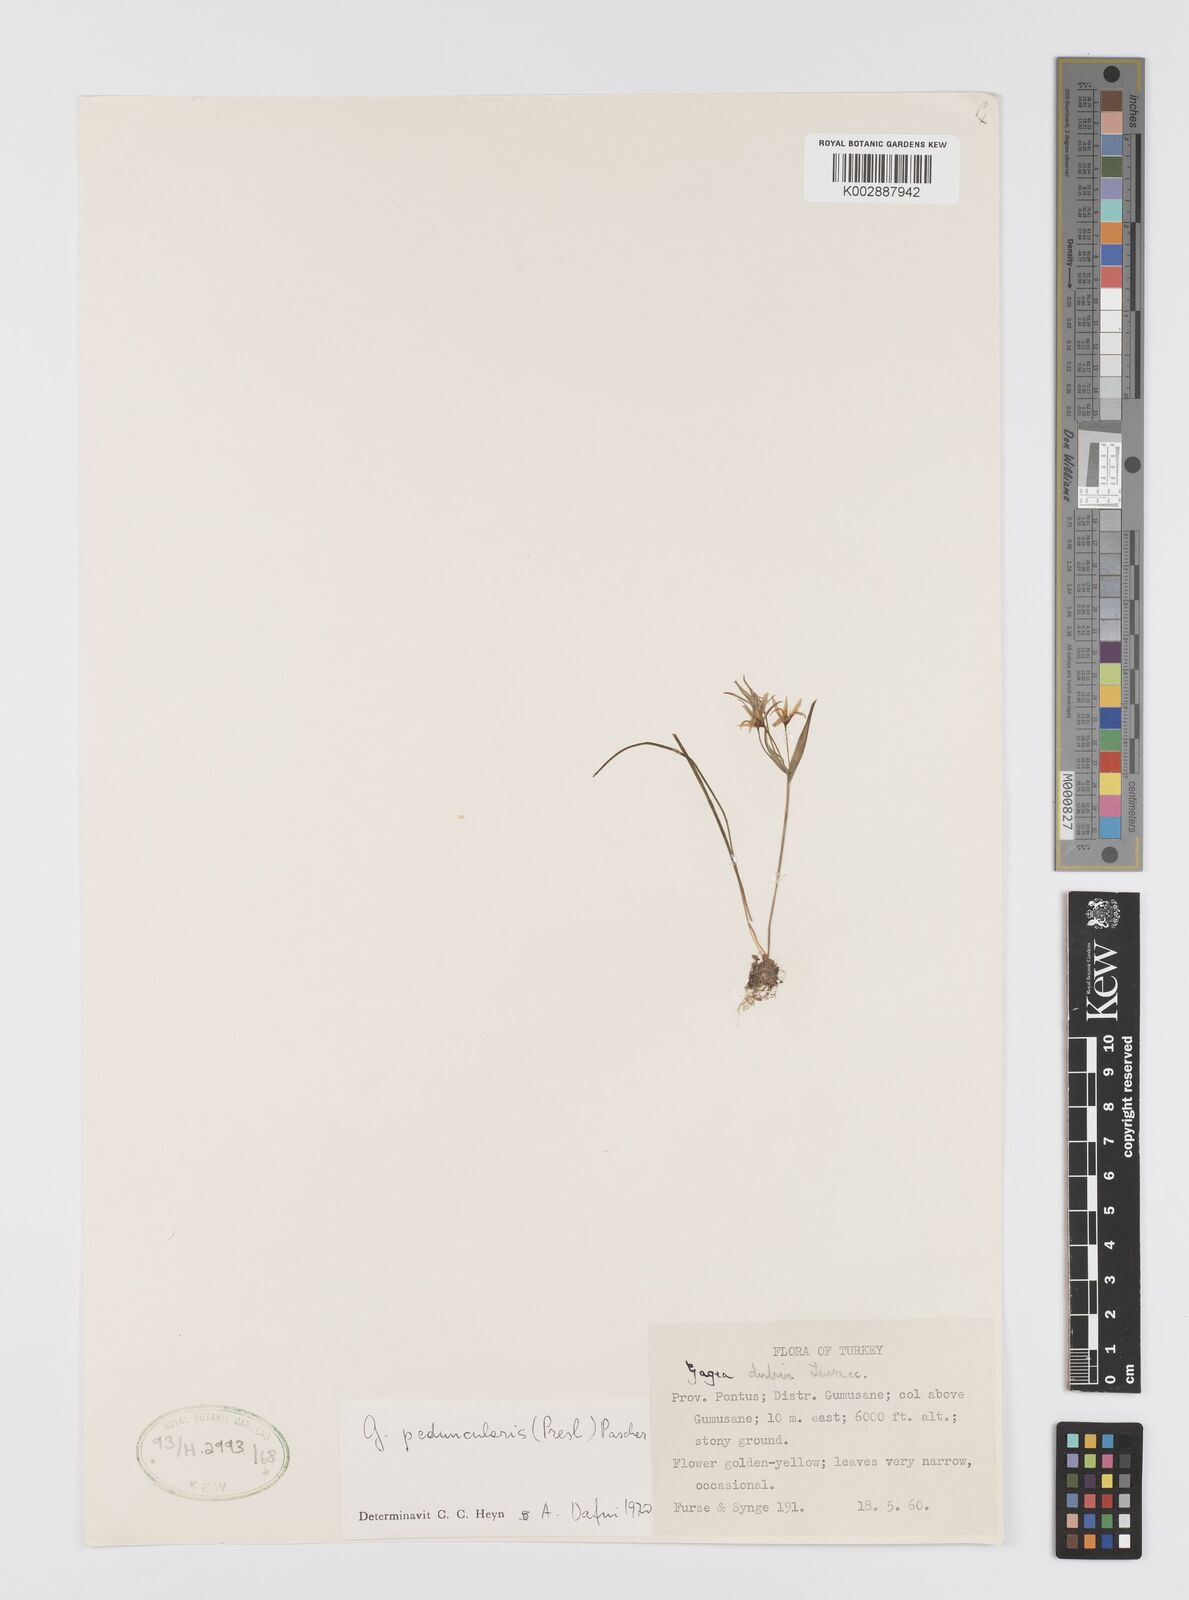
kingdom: Plantae
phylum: Tracheophyta
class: Liliopsida
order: Liliales
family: Liliaceae
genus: Gagea
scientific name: Gagea dubia
